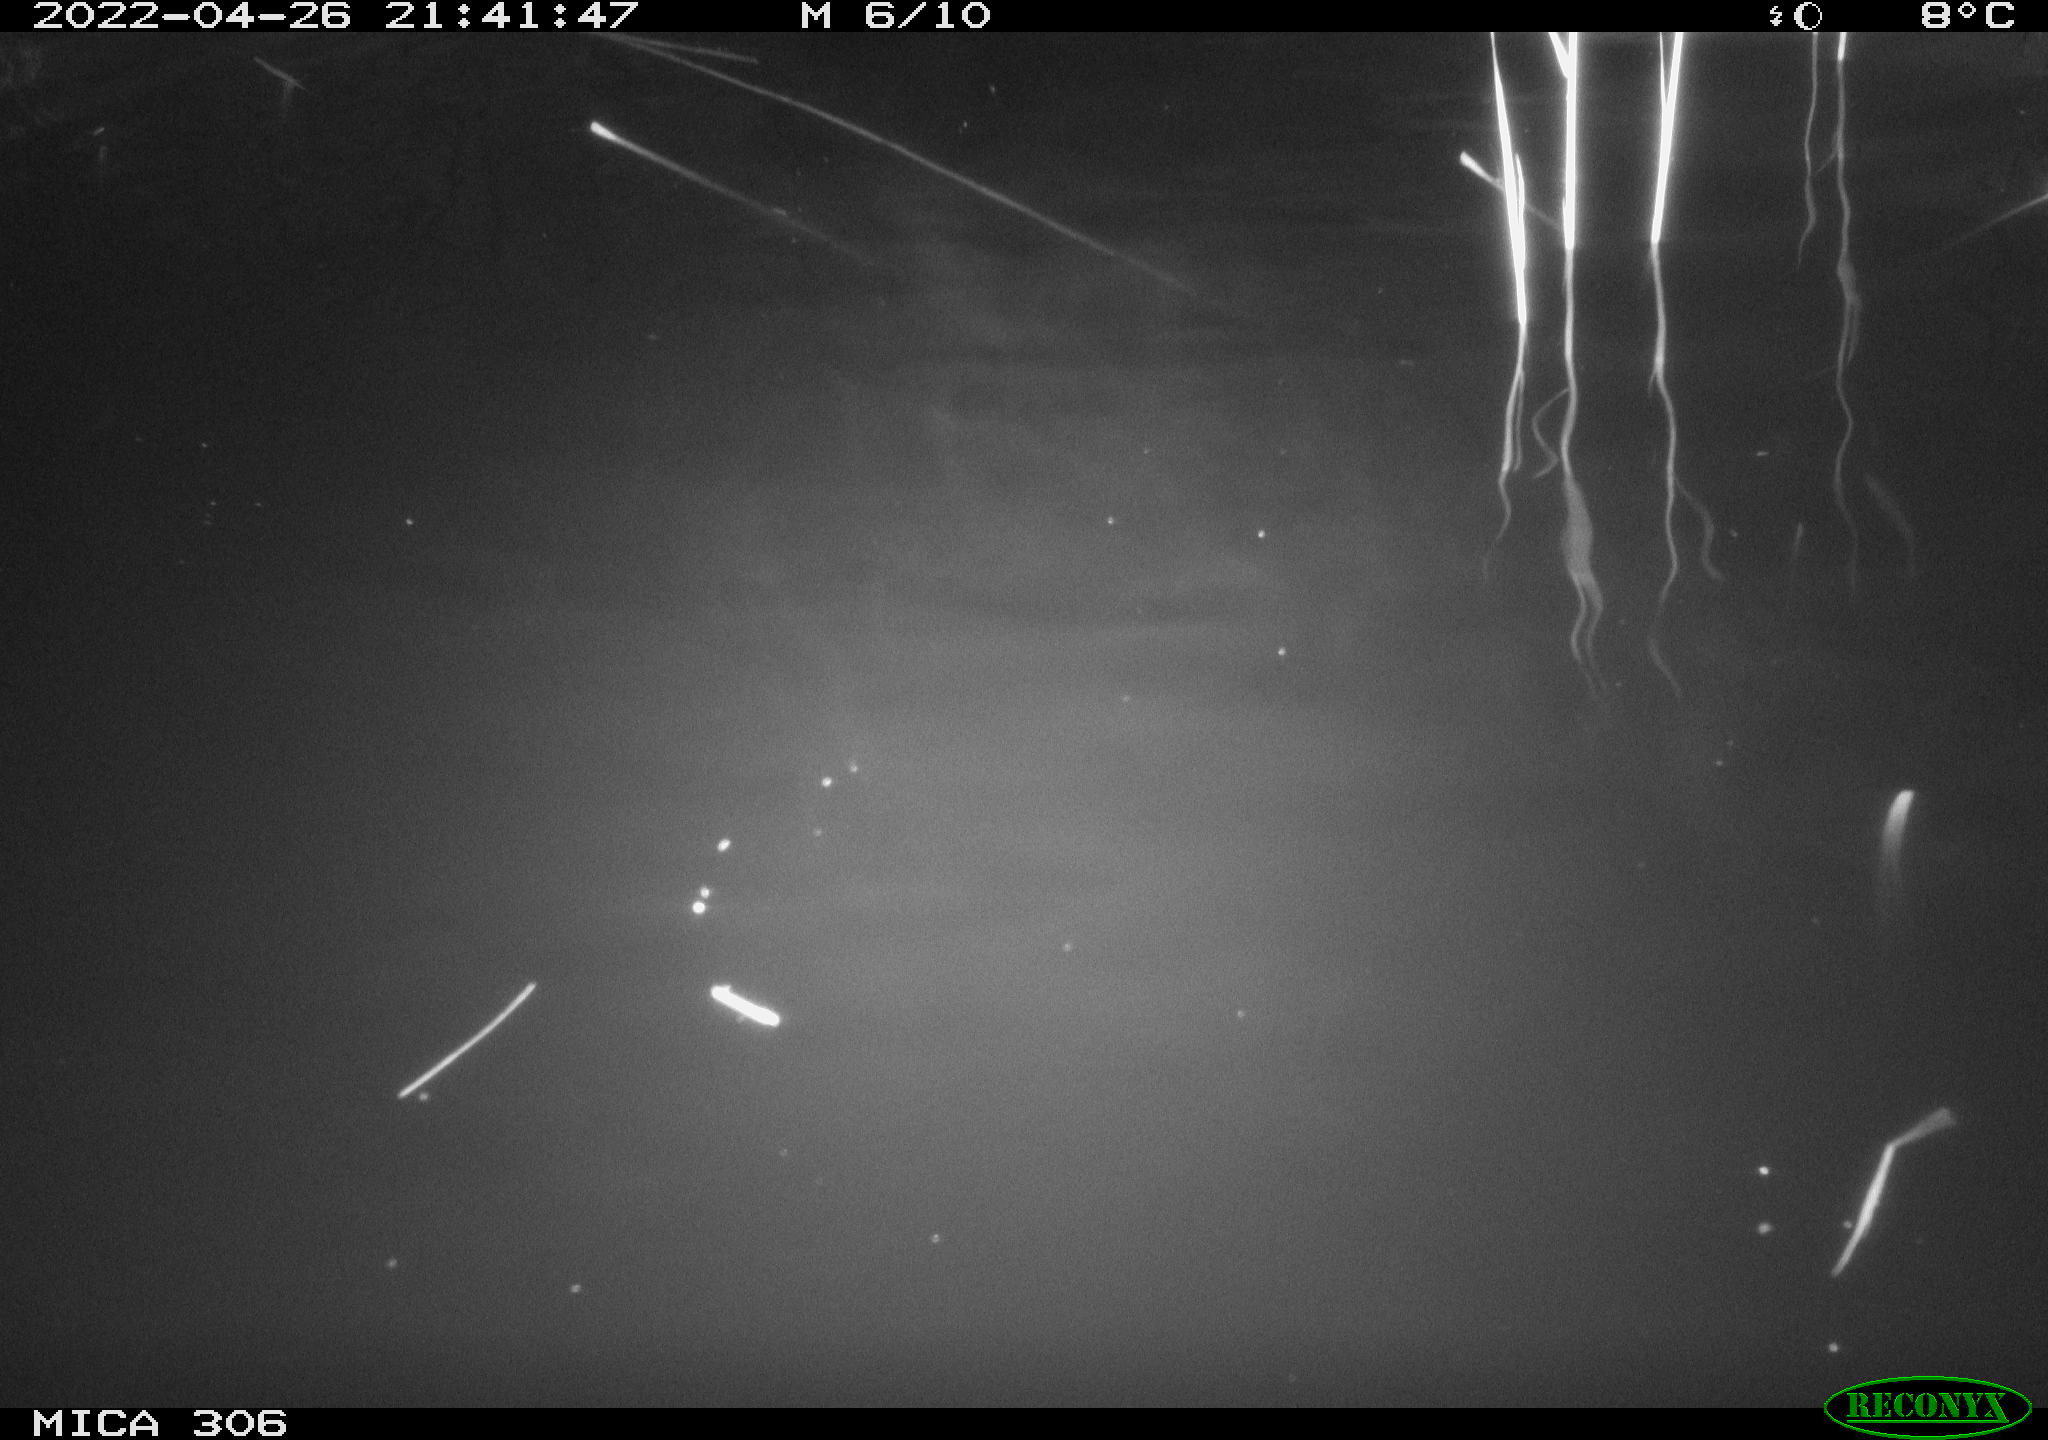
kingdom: Animalia
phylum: Chordata
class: Mammalia
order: Rodentia
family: Cricetidae
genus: Ondatra
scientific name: Ondatra zibethicus
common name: Muskrat
